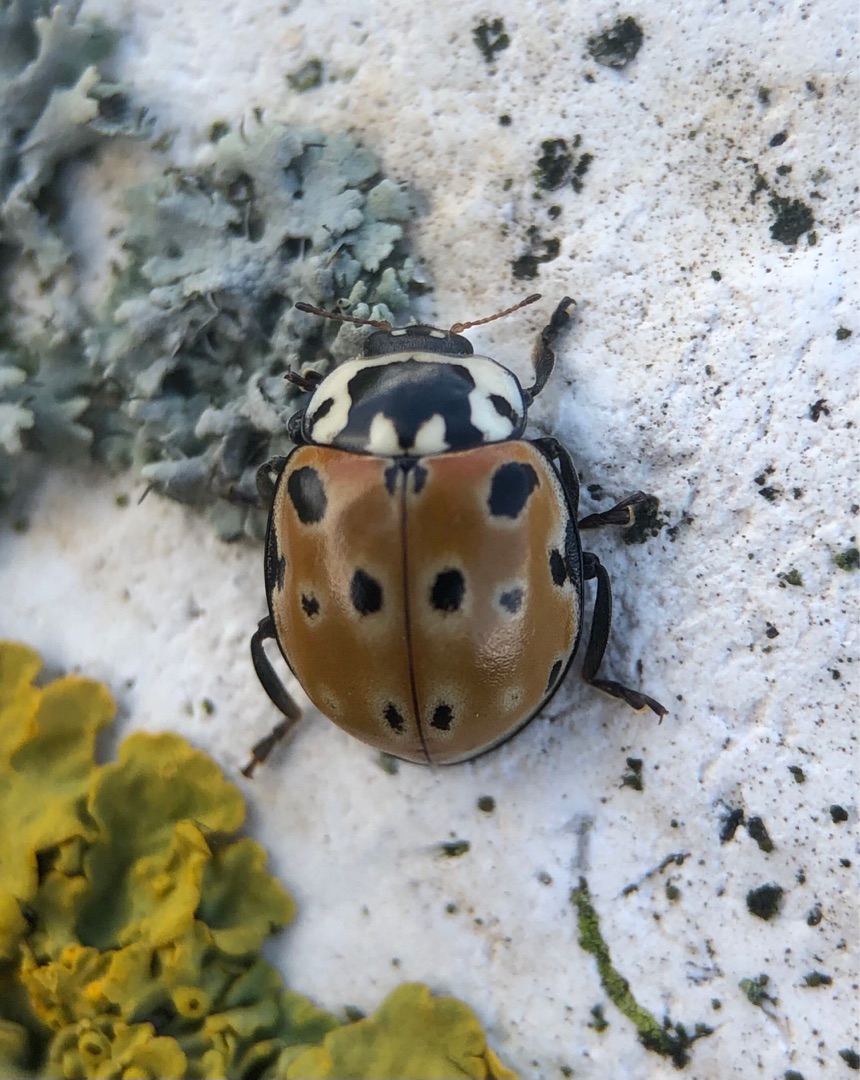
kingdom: Animalia
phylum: Arthropoda
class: Insecta
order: Coleoptera
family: Coccinellidae
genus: Anatis
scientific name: Anatis ocellata
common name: Øjeplettet mariehøne
